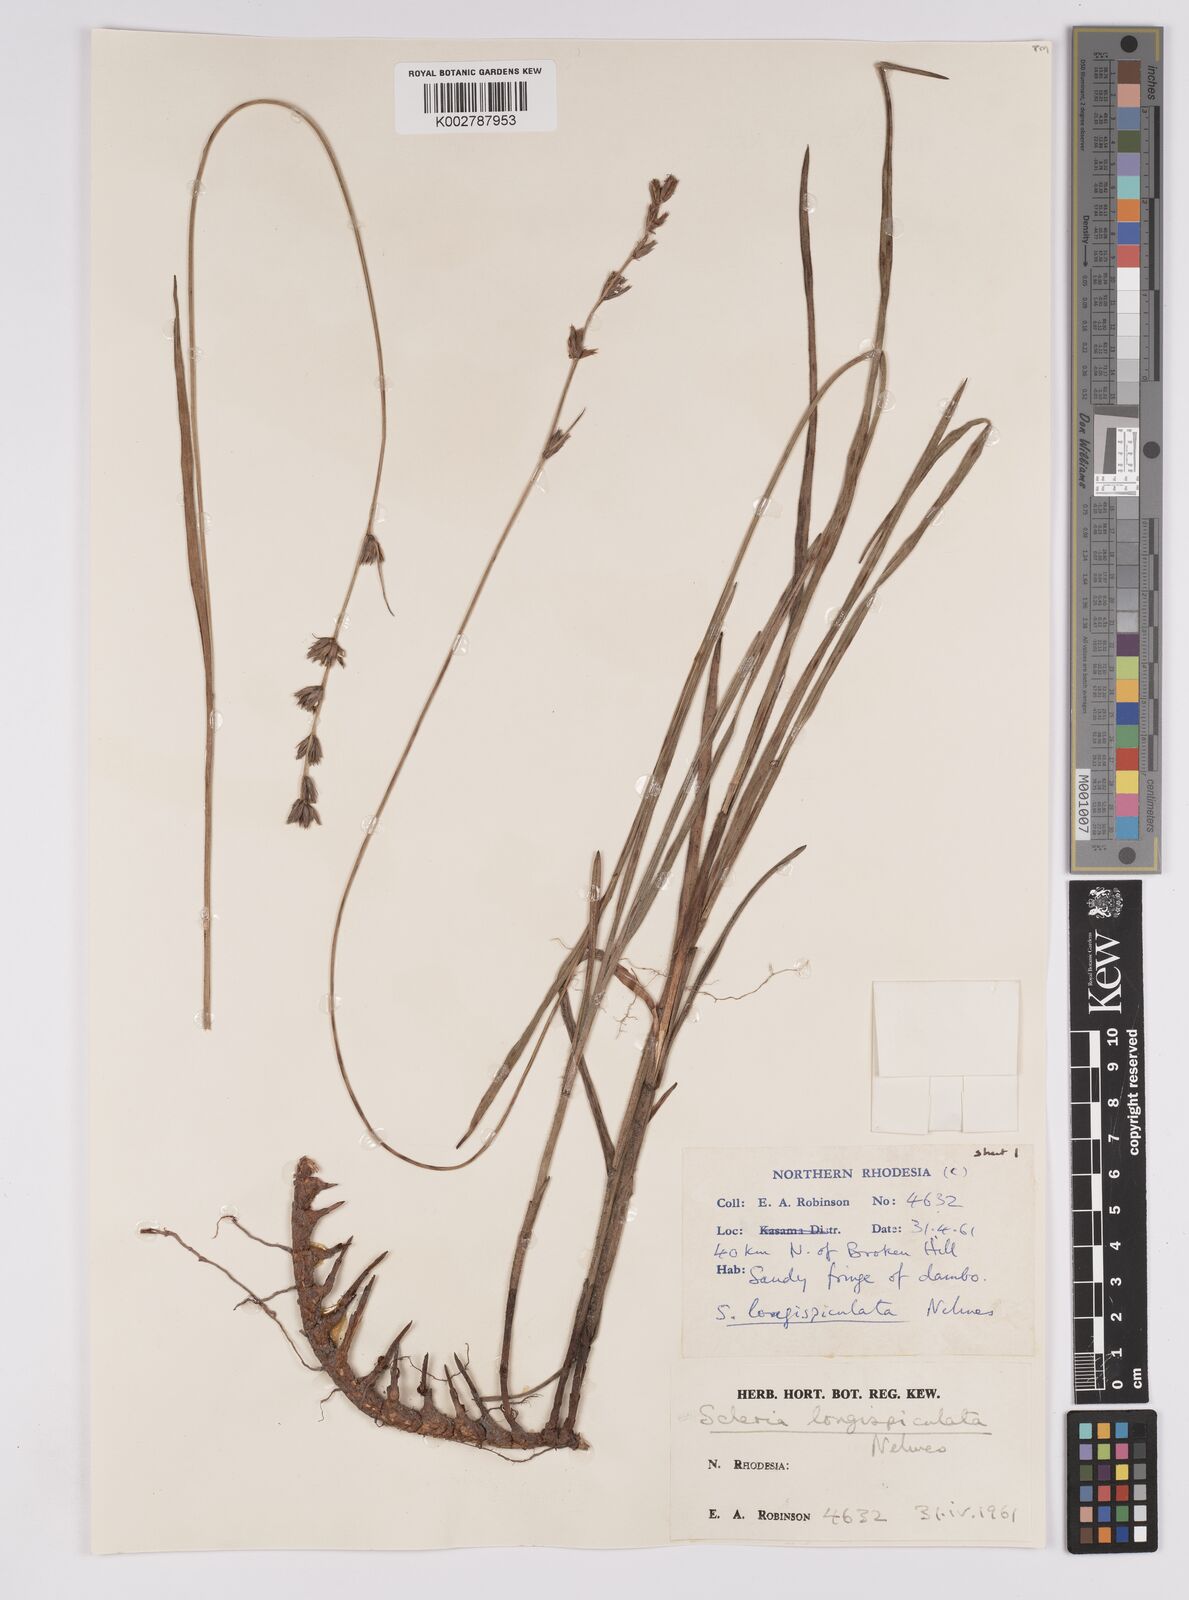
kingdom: Plantae
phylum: Tracheophyta
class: Liliopsida
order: Poales
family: Cyperaceae
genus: Scleria
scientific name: Scleria longispiculata
